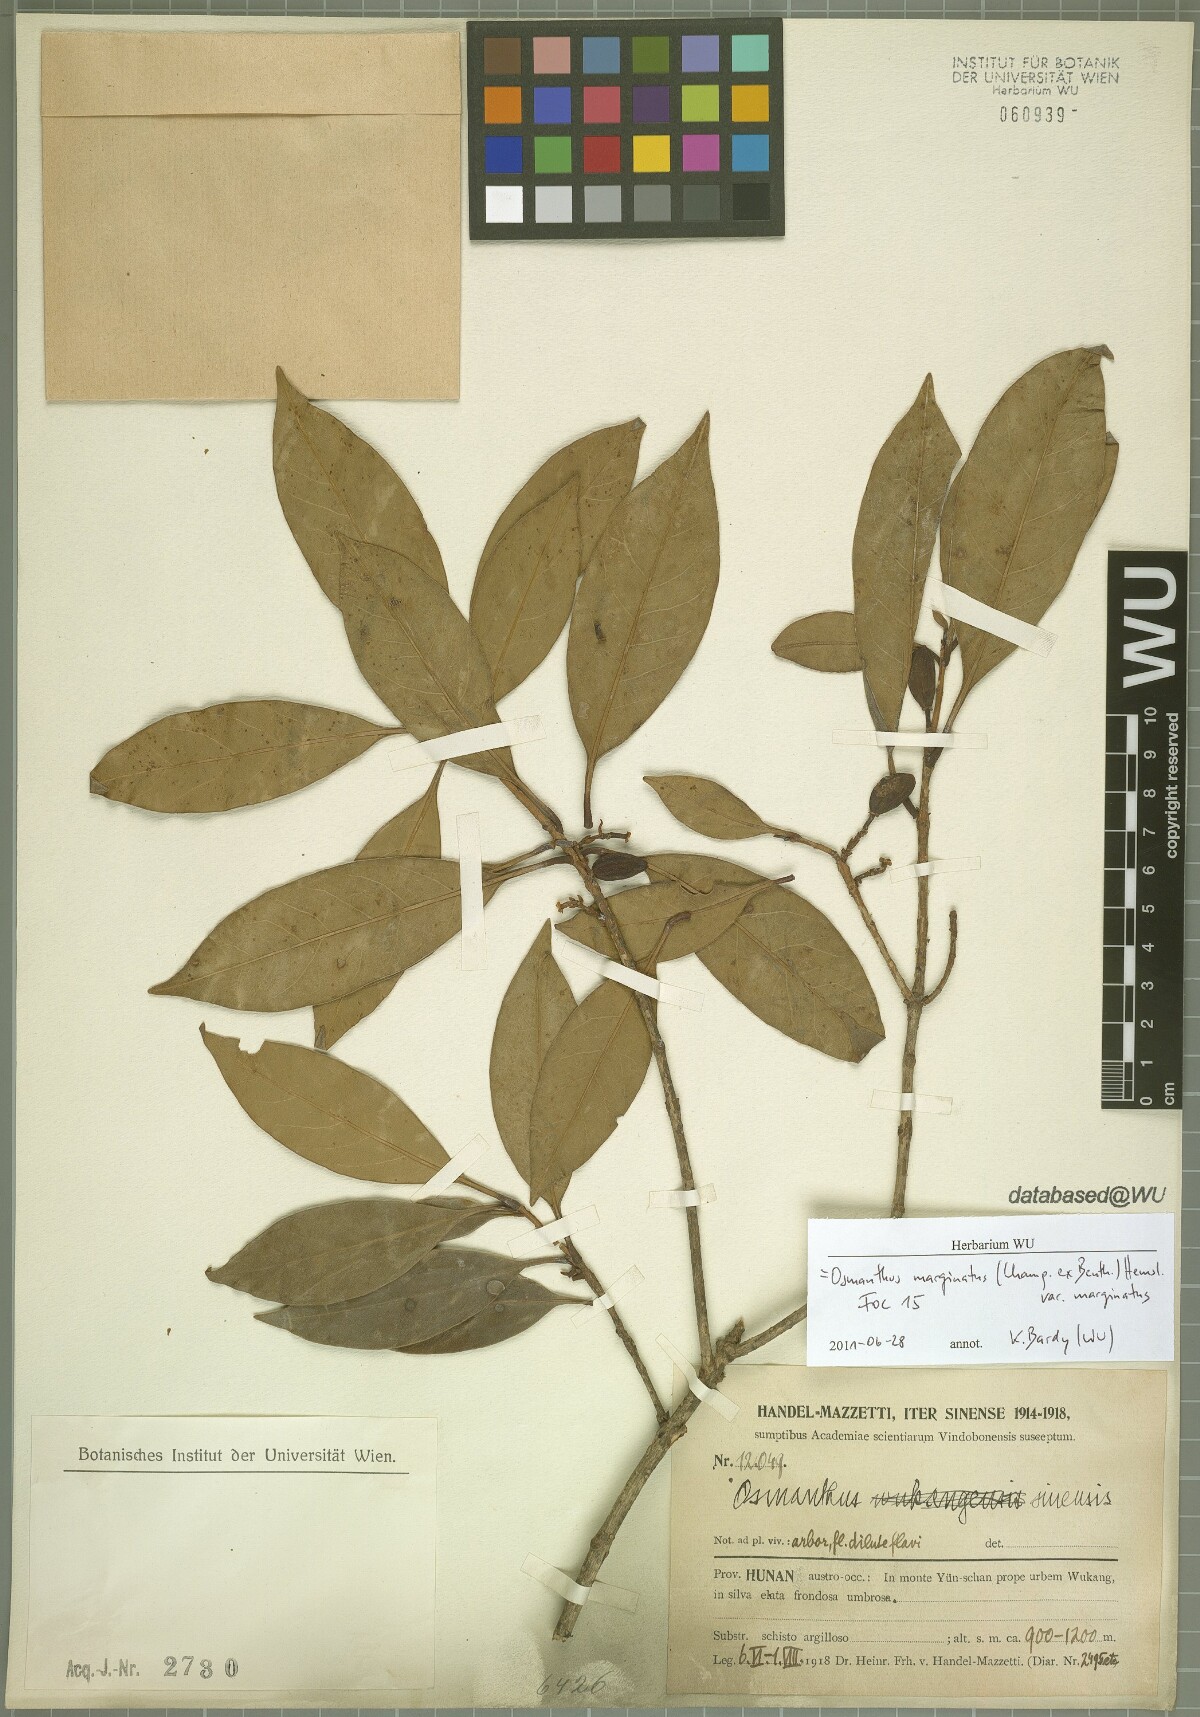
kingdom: Plantae
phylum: Tracheophyta
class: Magnoliopsida
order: Lamiales
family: Oleaceae
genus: Chengiodendron
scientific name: Chengiodendron marginatum
